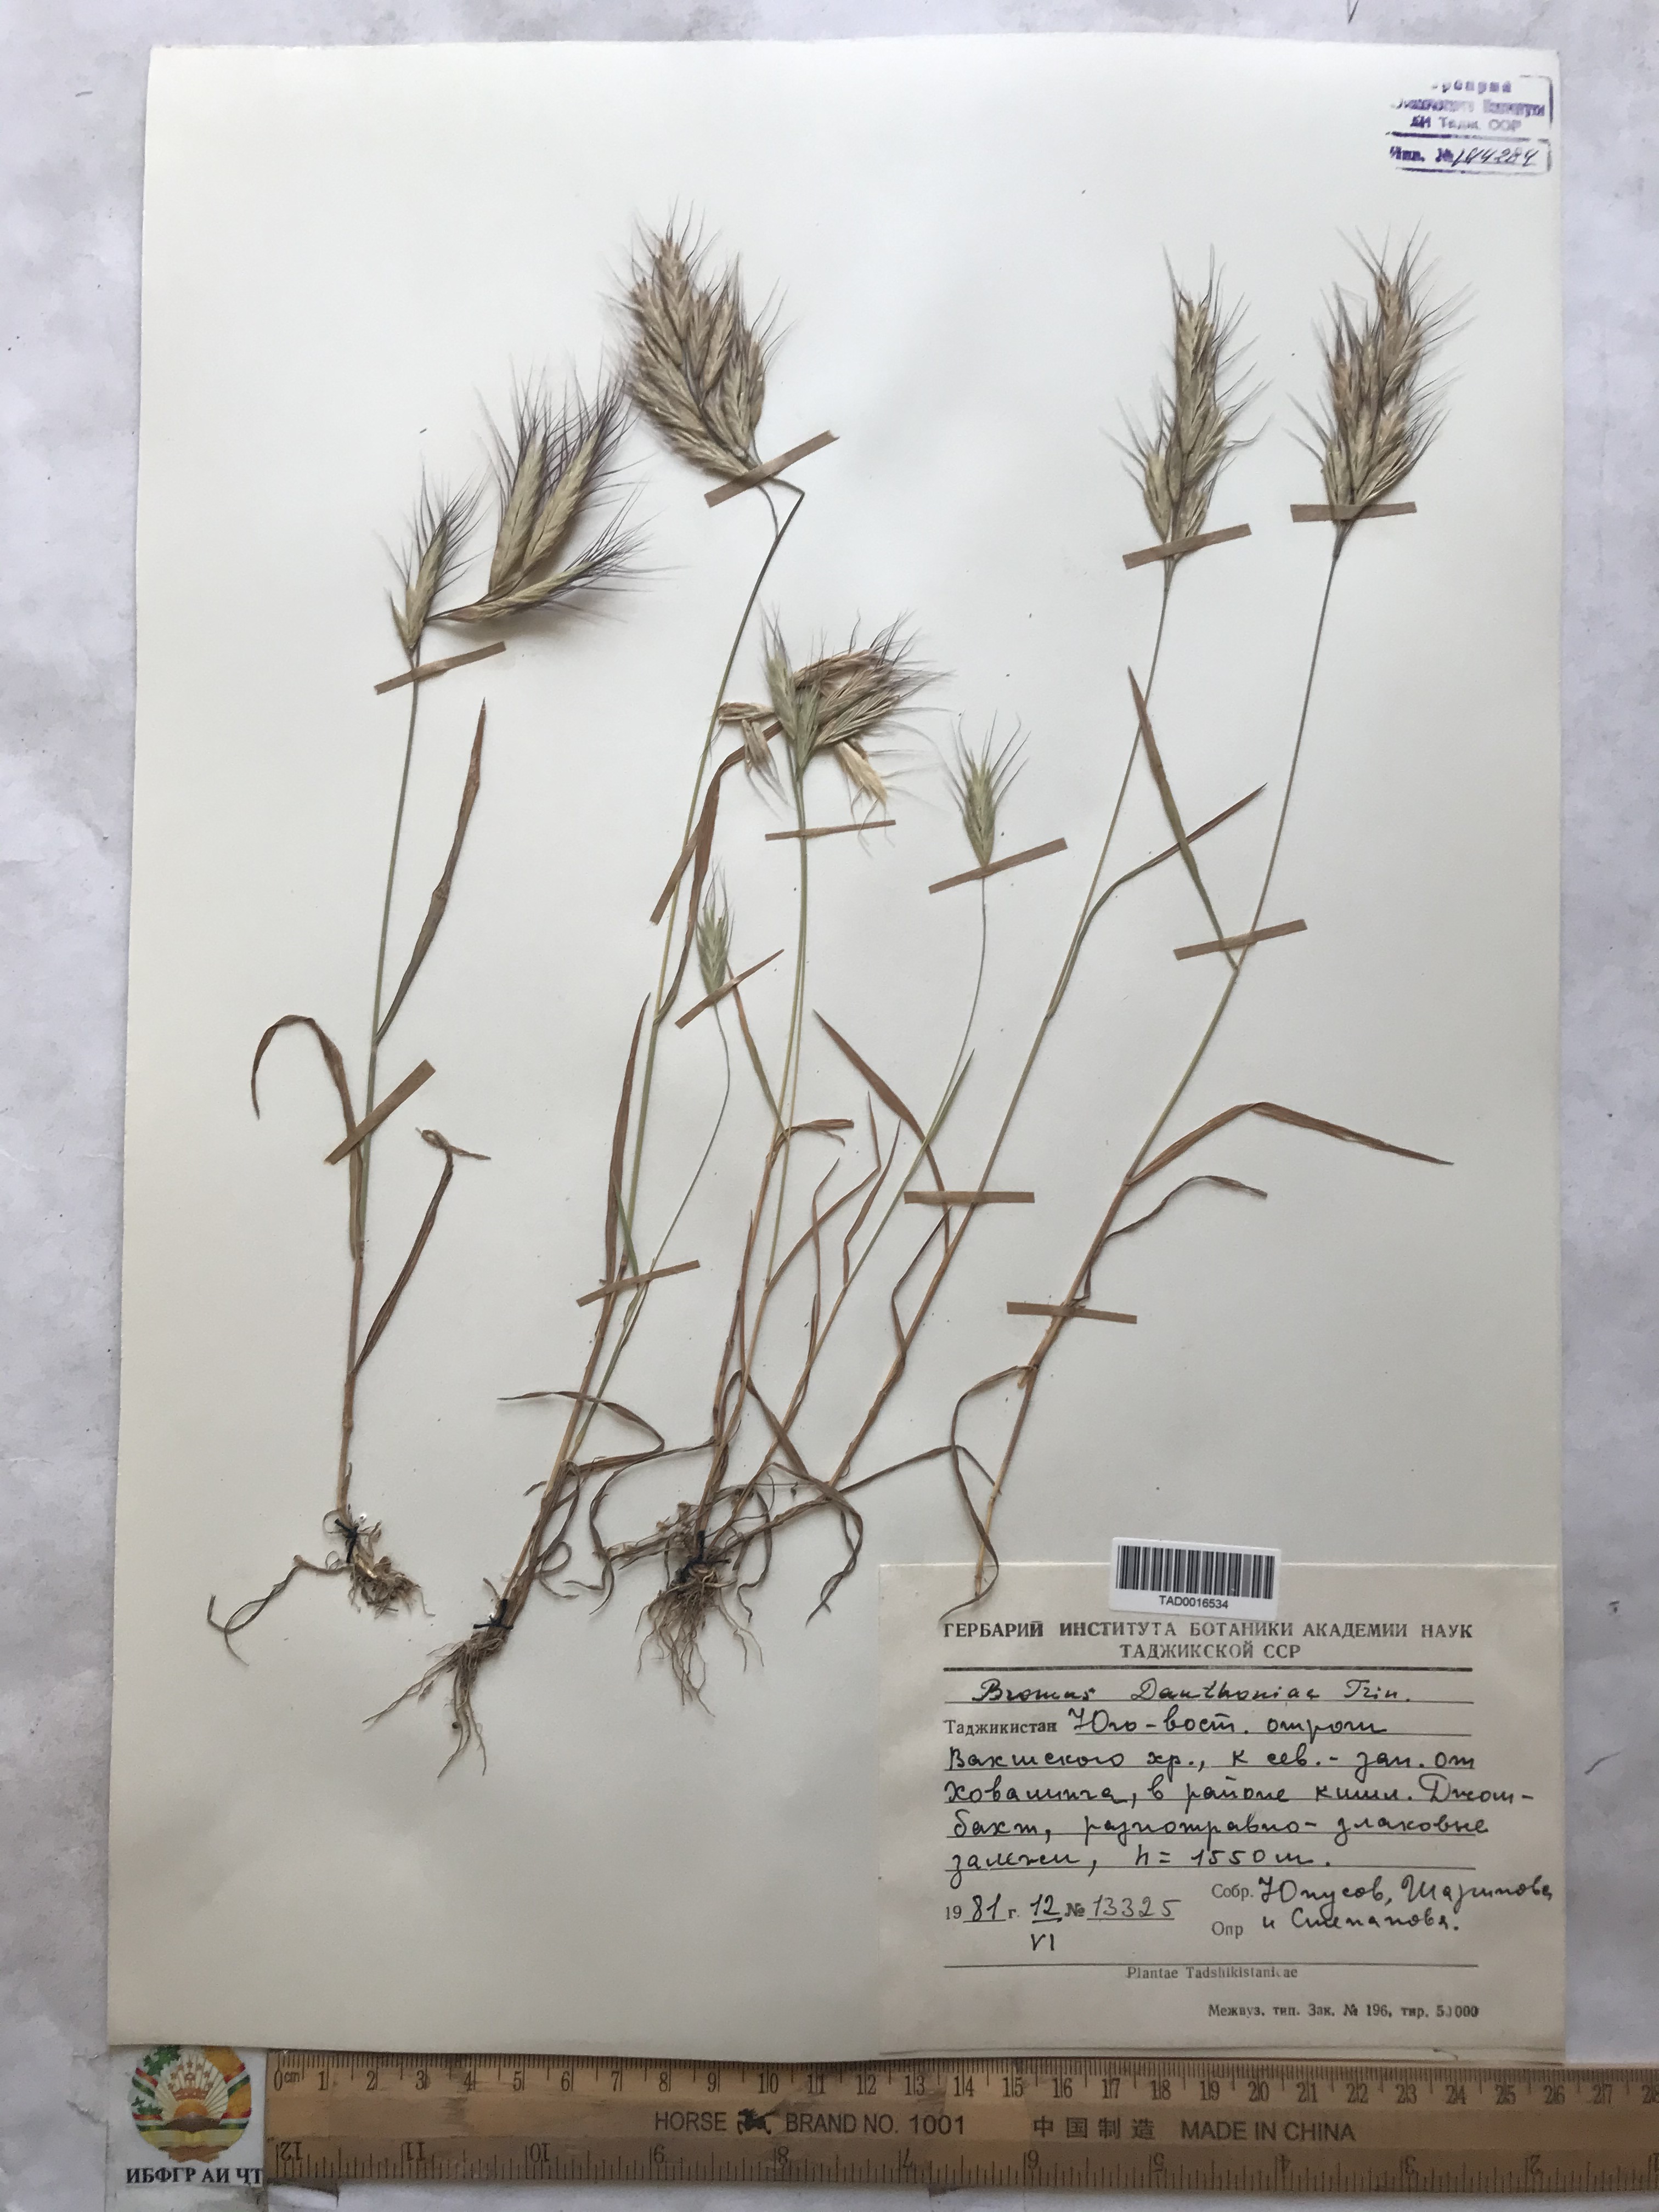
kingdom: Plantae
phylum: Tracheophyta
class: Liliopsida
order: Poales
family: Poaceae
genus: Bromus
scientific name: Bromus danthoniae
